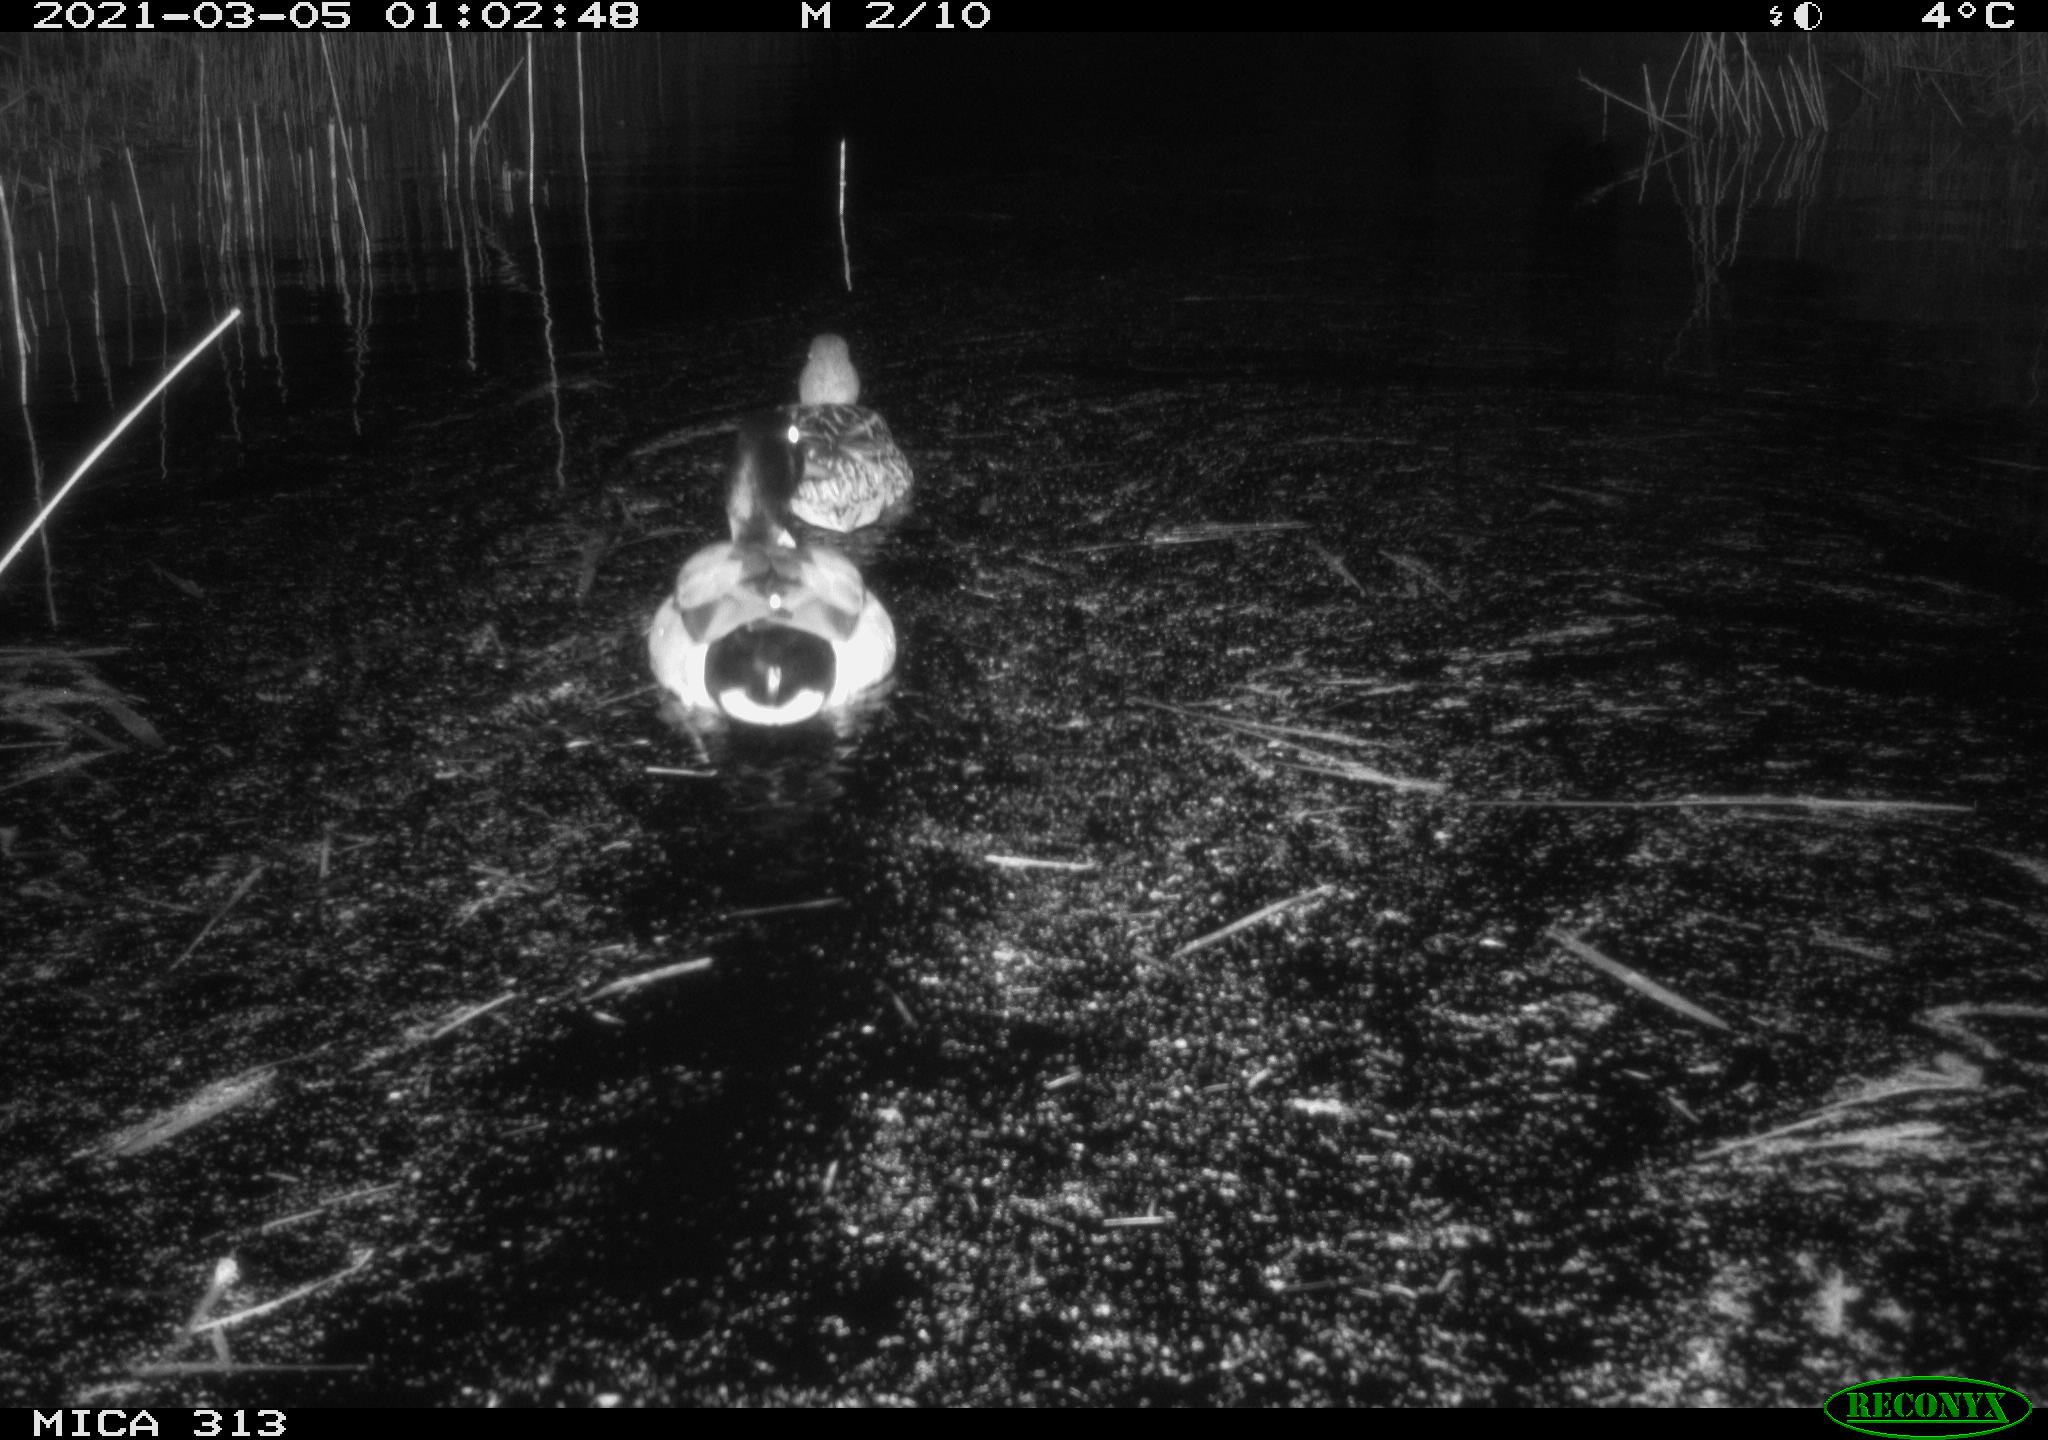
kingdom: Animalia
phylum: Chordata
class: Aves
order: Anseriformes
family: Anatidae
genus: Anas
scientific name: Anas platyrhynchos
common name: Mallard
